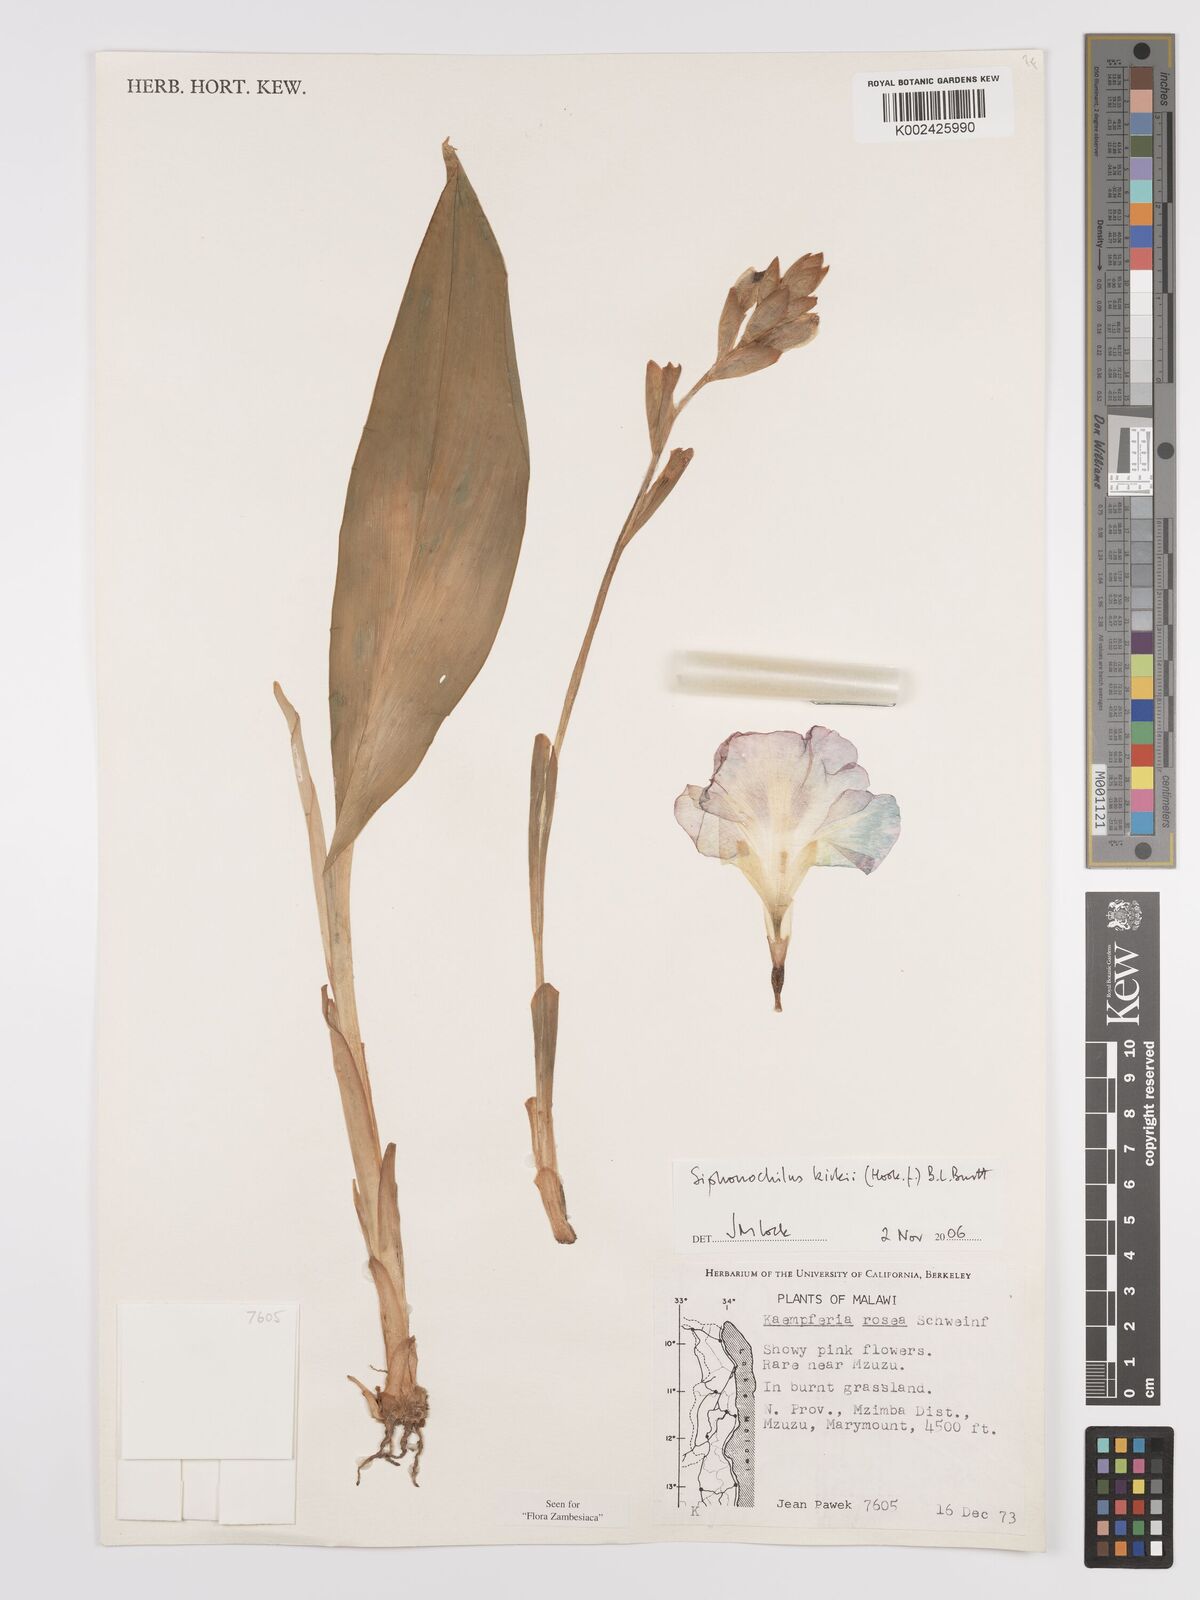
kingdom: Plantae
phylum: Tracheophyta
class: Liliopsida
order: Zingiberales
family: Zingiberaceae
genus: Siphonochilus
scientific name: Siphonochilus kirkii
